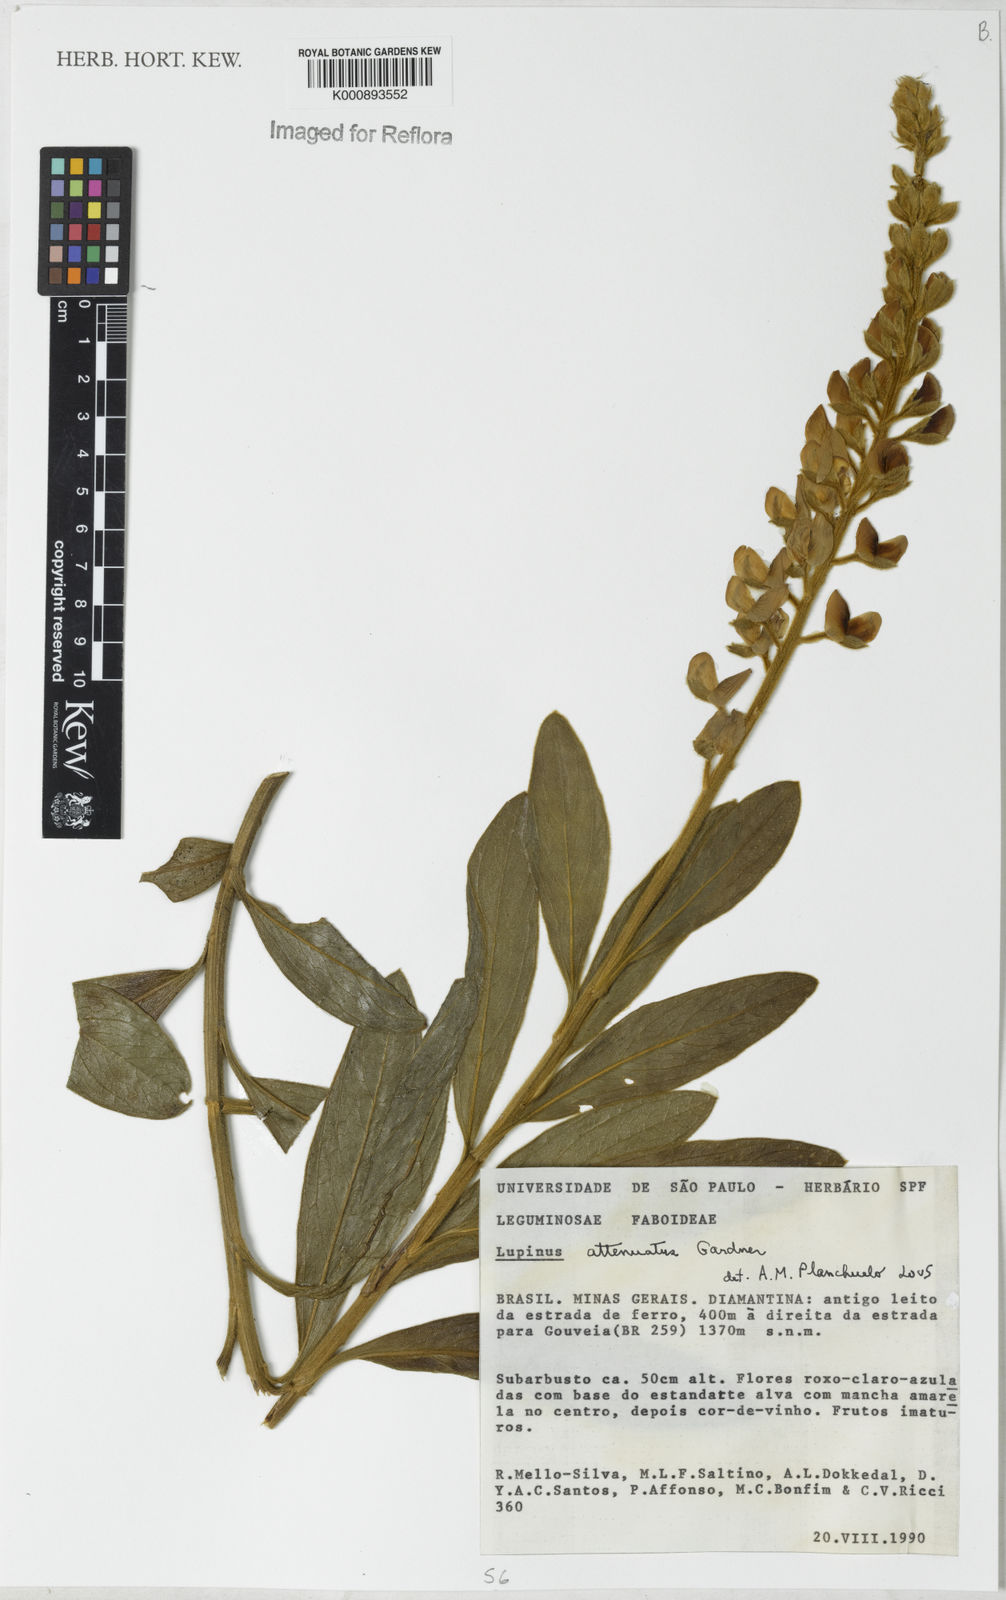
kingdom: Plantae
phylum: Tracheophyta
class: Magnoliopsida
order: Fabales
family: Fabaceae
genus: Lupinus
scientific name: Lupinus coriaceus
